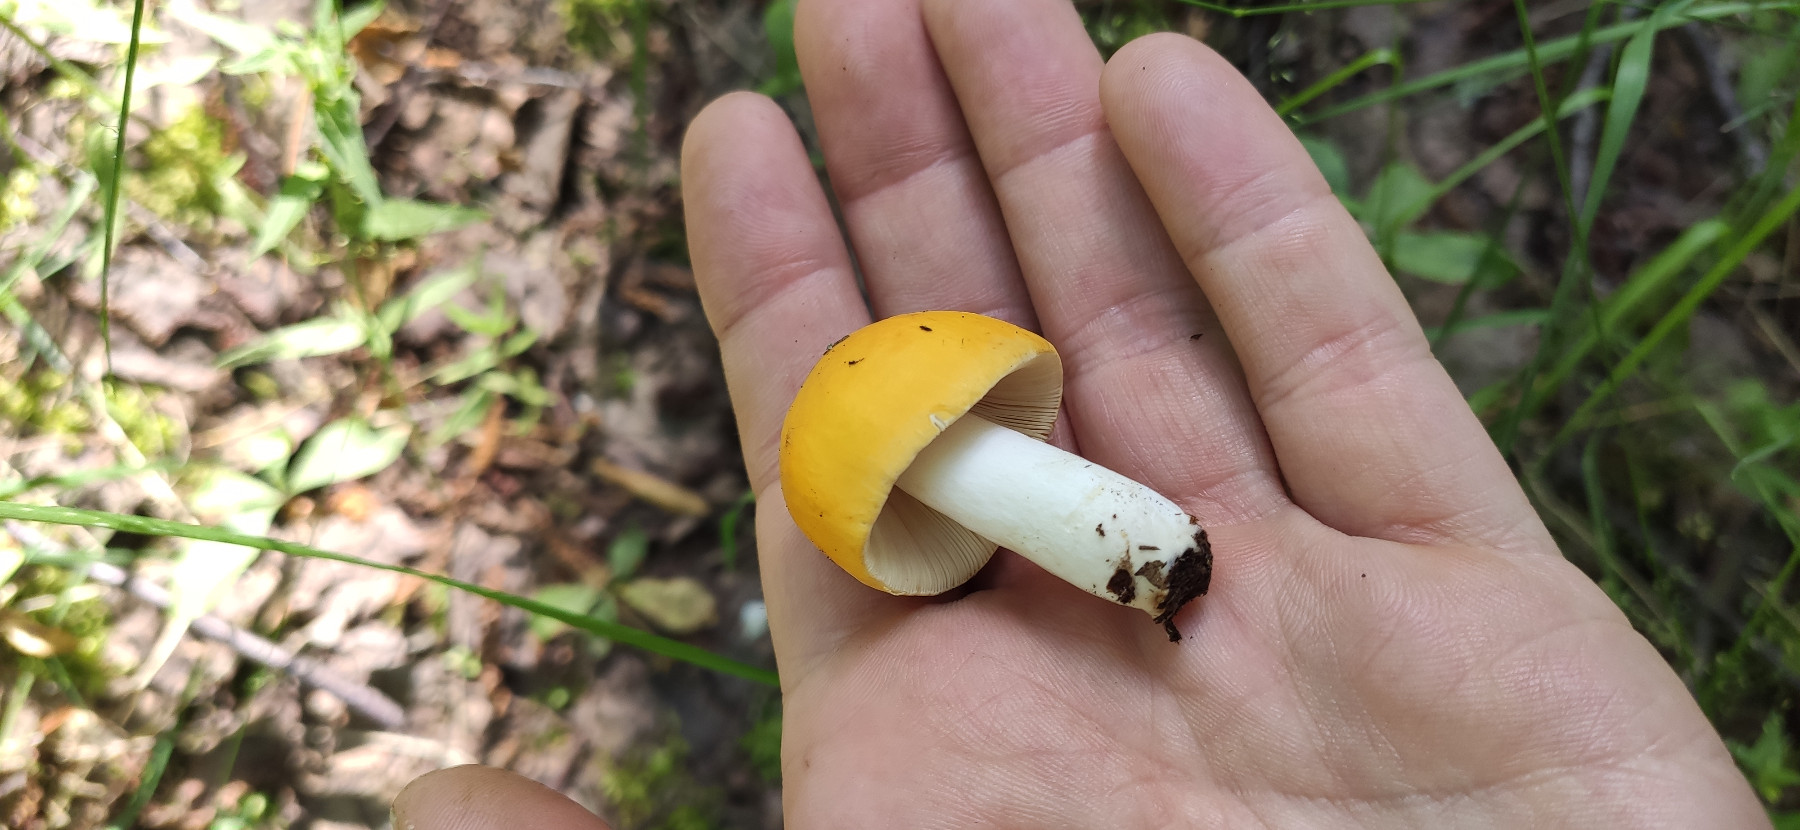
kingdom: Fungi
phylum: Basidiomycota
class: Agaricomycetes
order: Russulales
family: Russulaceae
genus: Russula
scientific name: Russula claroflava
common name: birke-skørhat
